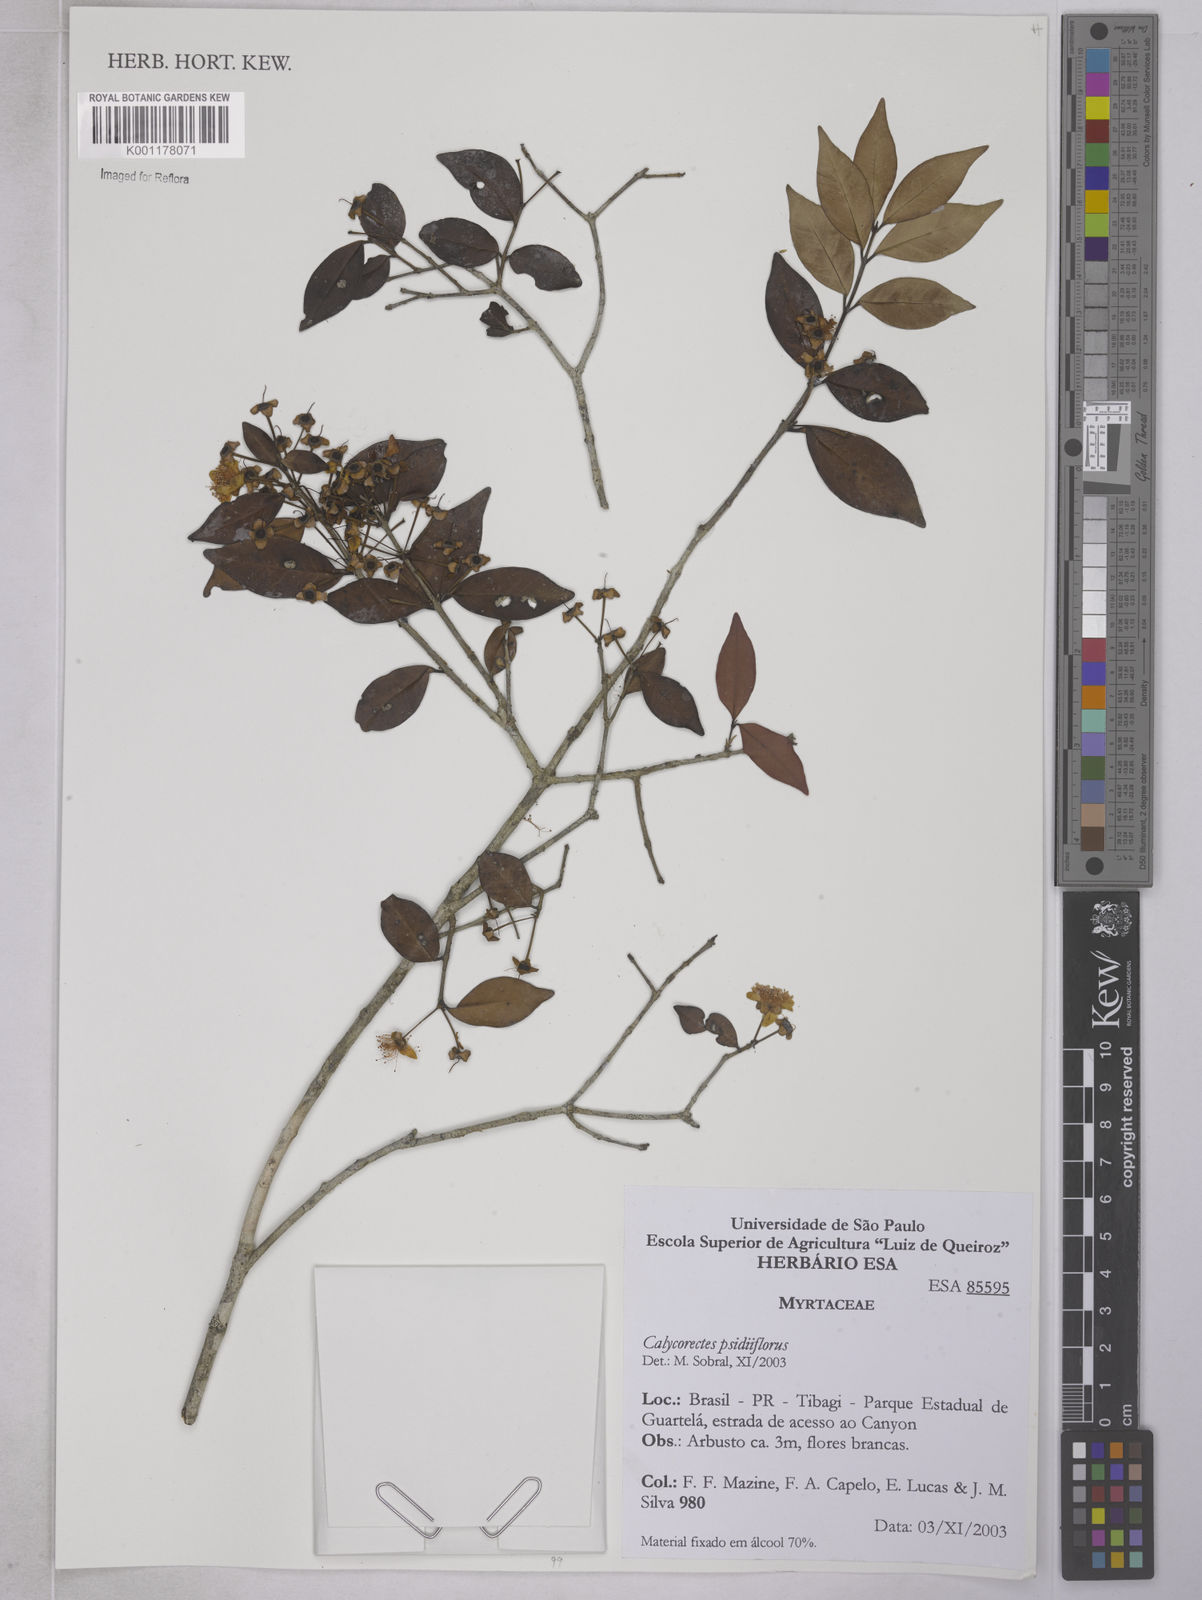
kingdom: Plantae
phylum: Tracheophyta
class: Magnoliopsida
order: Myrtales
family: Myrtaceae
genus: Eugenia
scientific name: Eugenia subterminalis
